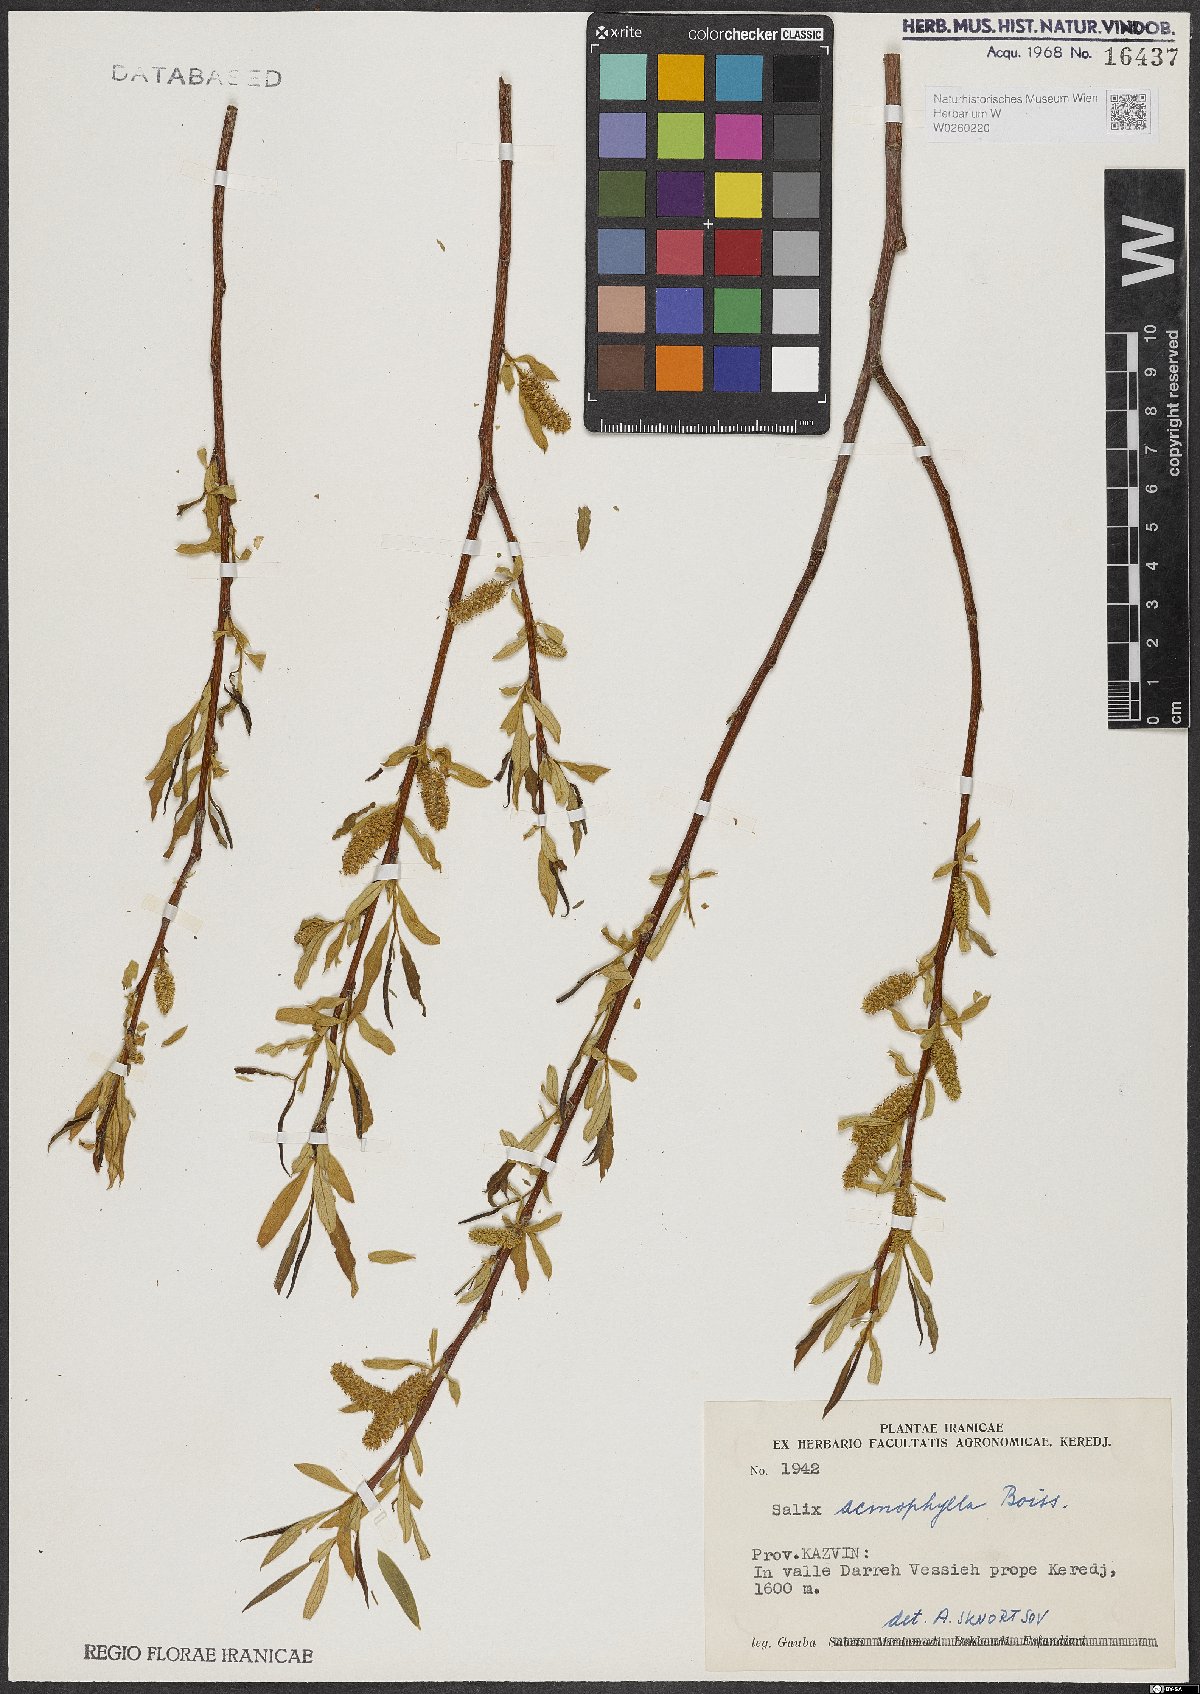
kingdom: Plantae
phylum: Tracheophyta
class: Magnoliopsida
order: Malpighiales
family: Salicaceae
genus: Salix
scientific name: Salix acmophylla
